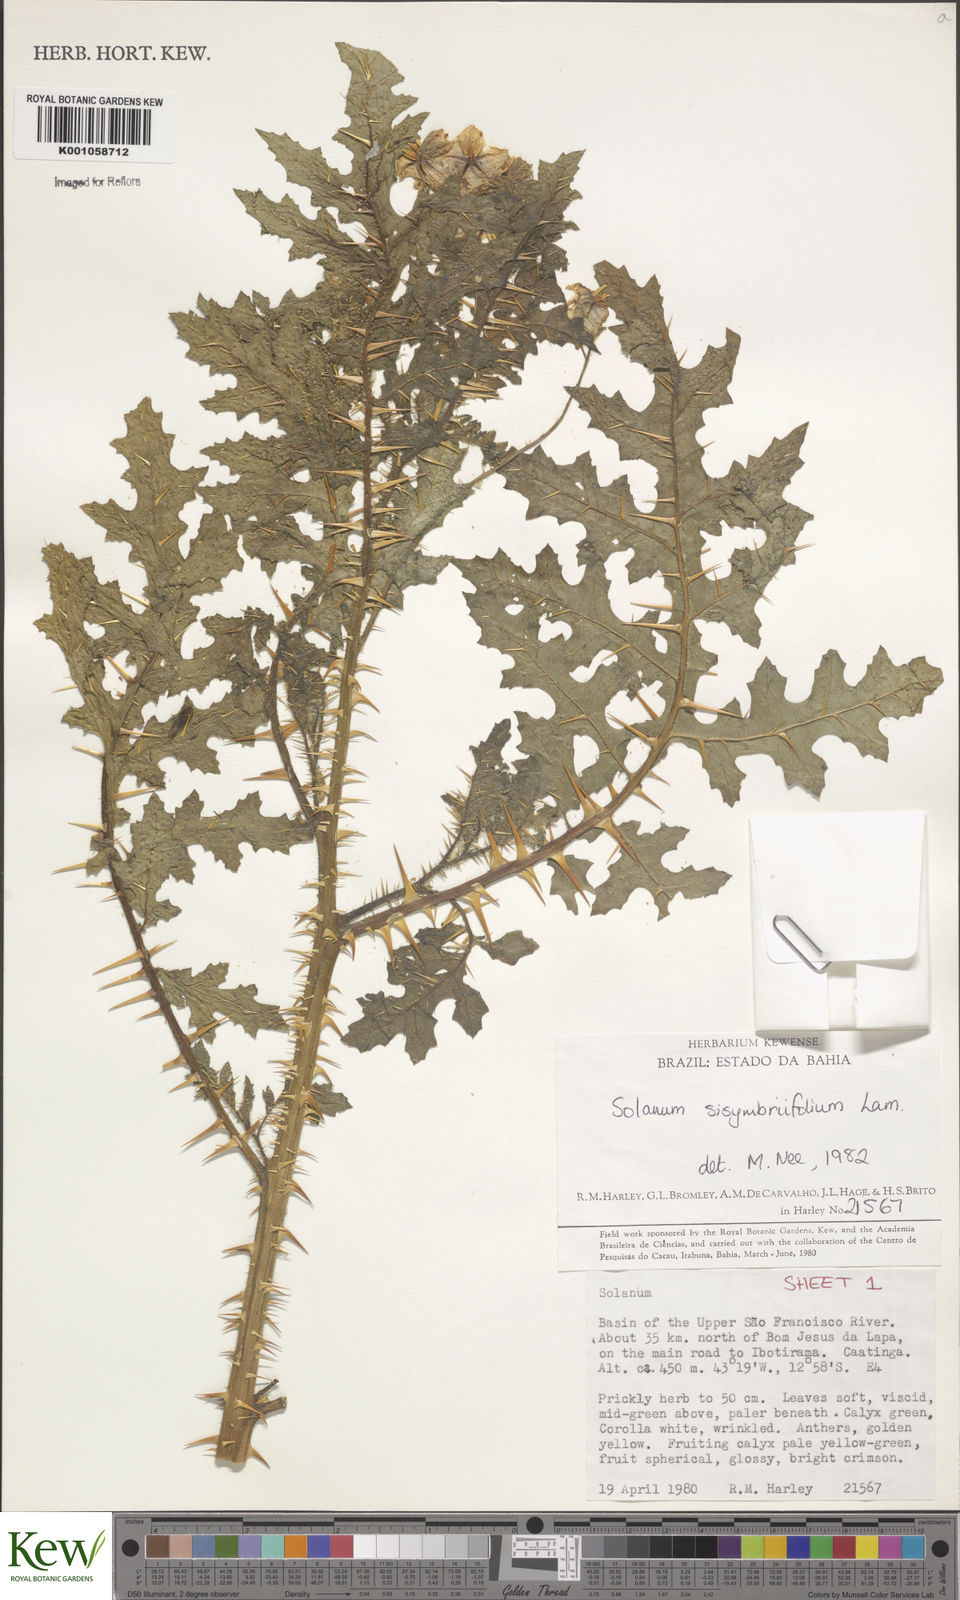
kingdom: Plantae
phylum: Tracheophyta
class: Magnoliopsida
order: Solanales
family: Solanaceae
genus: Solanum
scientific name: Solanum sisymbriifolium
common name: Red buffalo-bur
